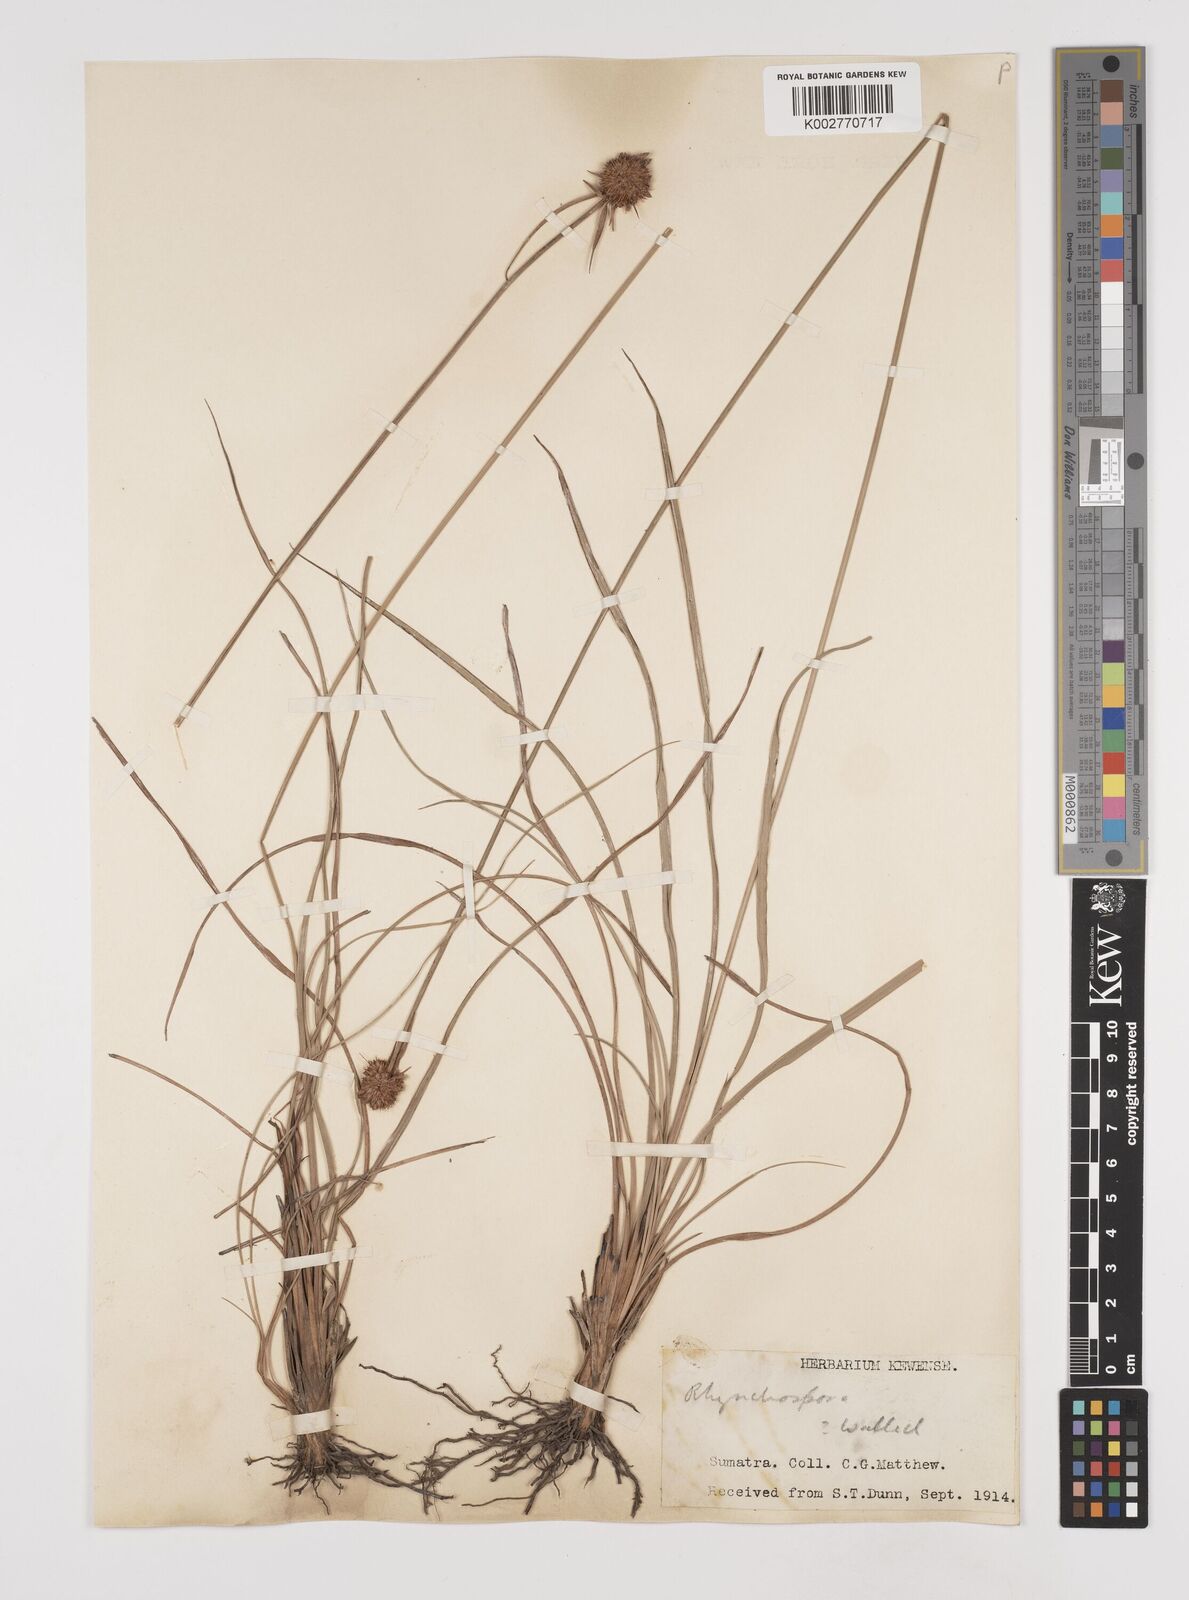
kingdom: Plantae
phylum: Tracheophyta
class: Liliopsida
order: Poales
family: Cyperaceae
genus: Rhynchospora
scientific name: Rhynchospora rubra
